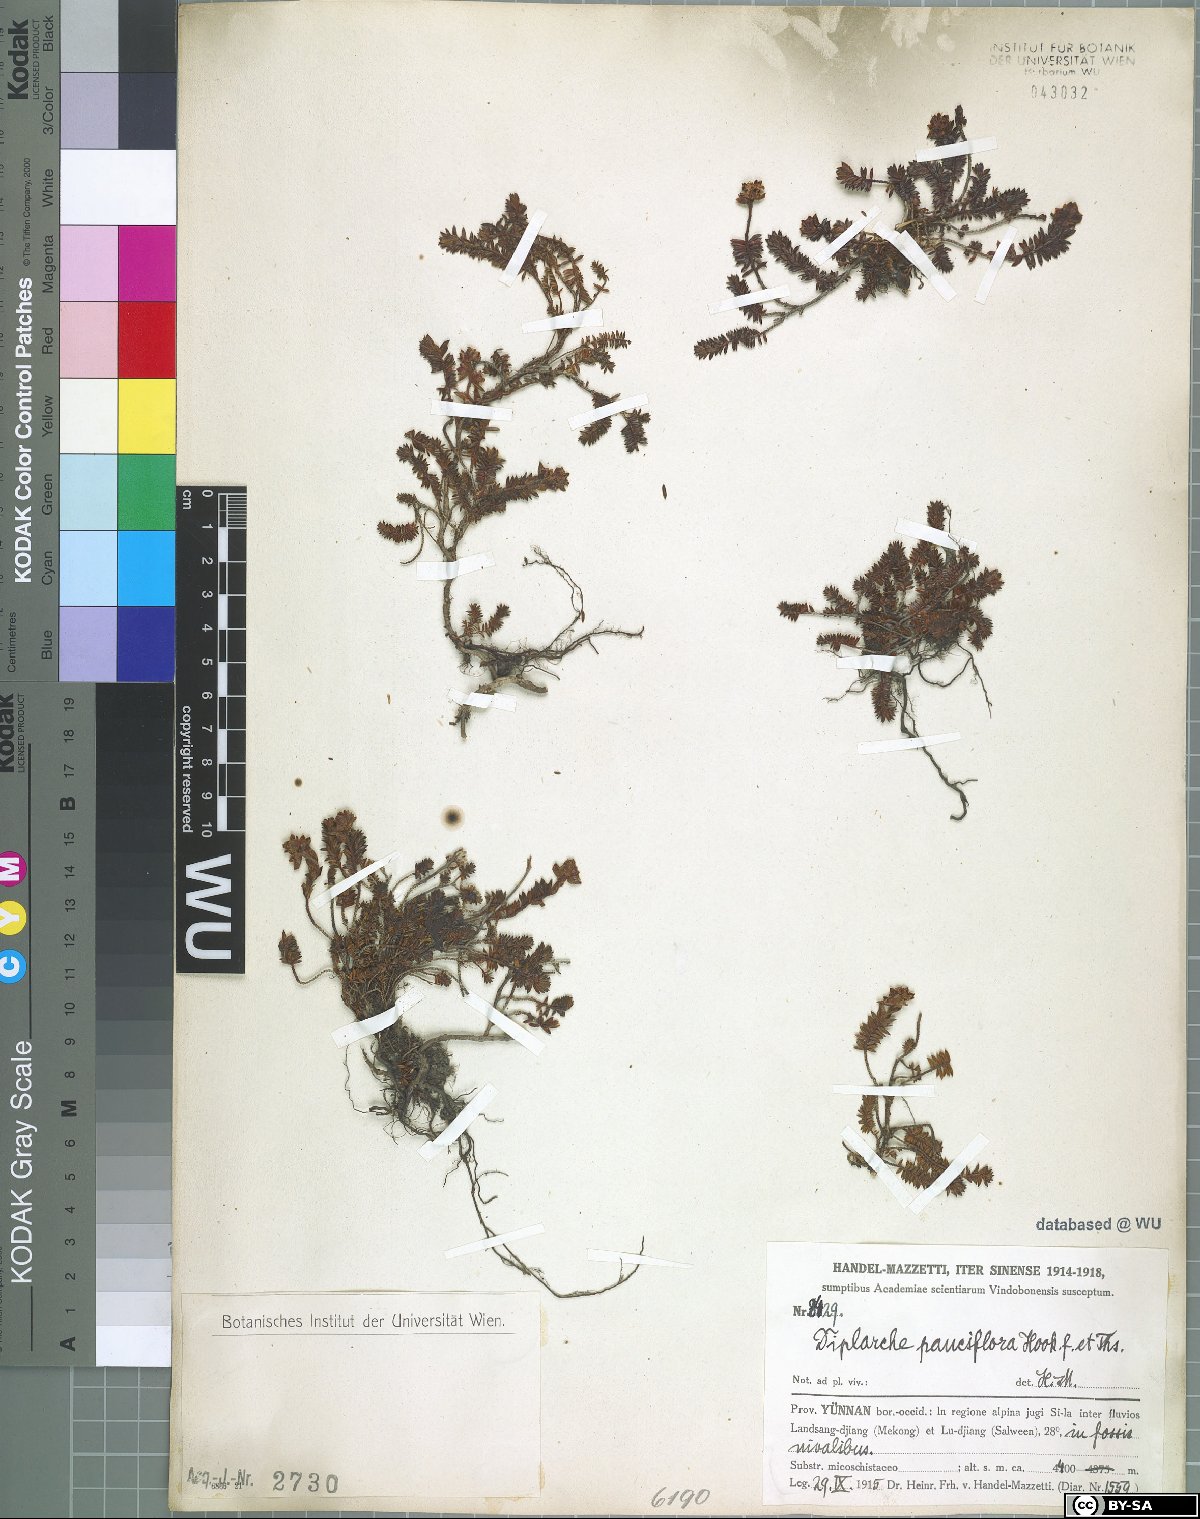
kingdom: Plantae
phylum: Tracheophyta
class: Magnoliopsida
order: Ericales
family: Ericaceae
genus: Rhododendron
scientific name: Rhododendron sophistarum
